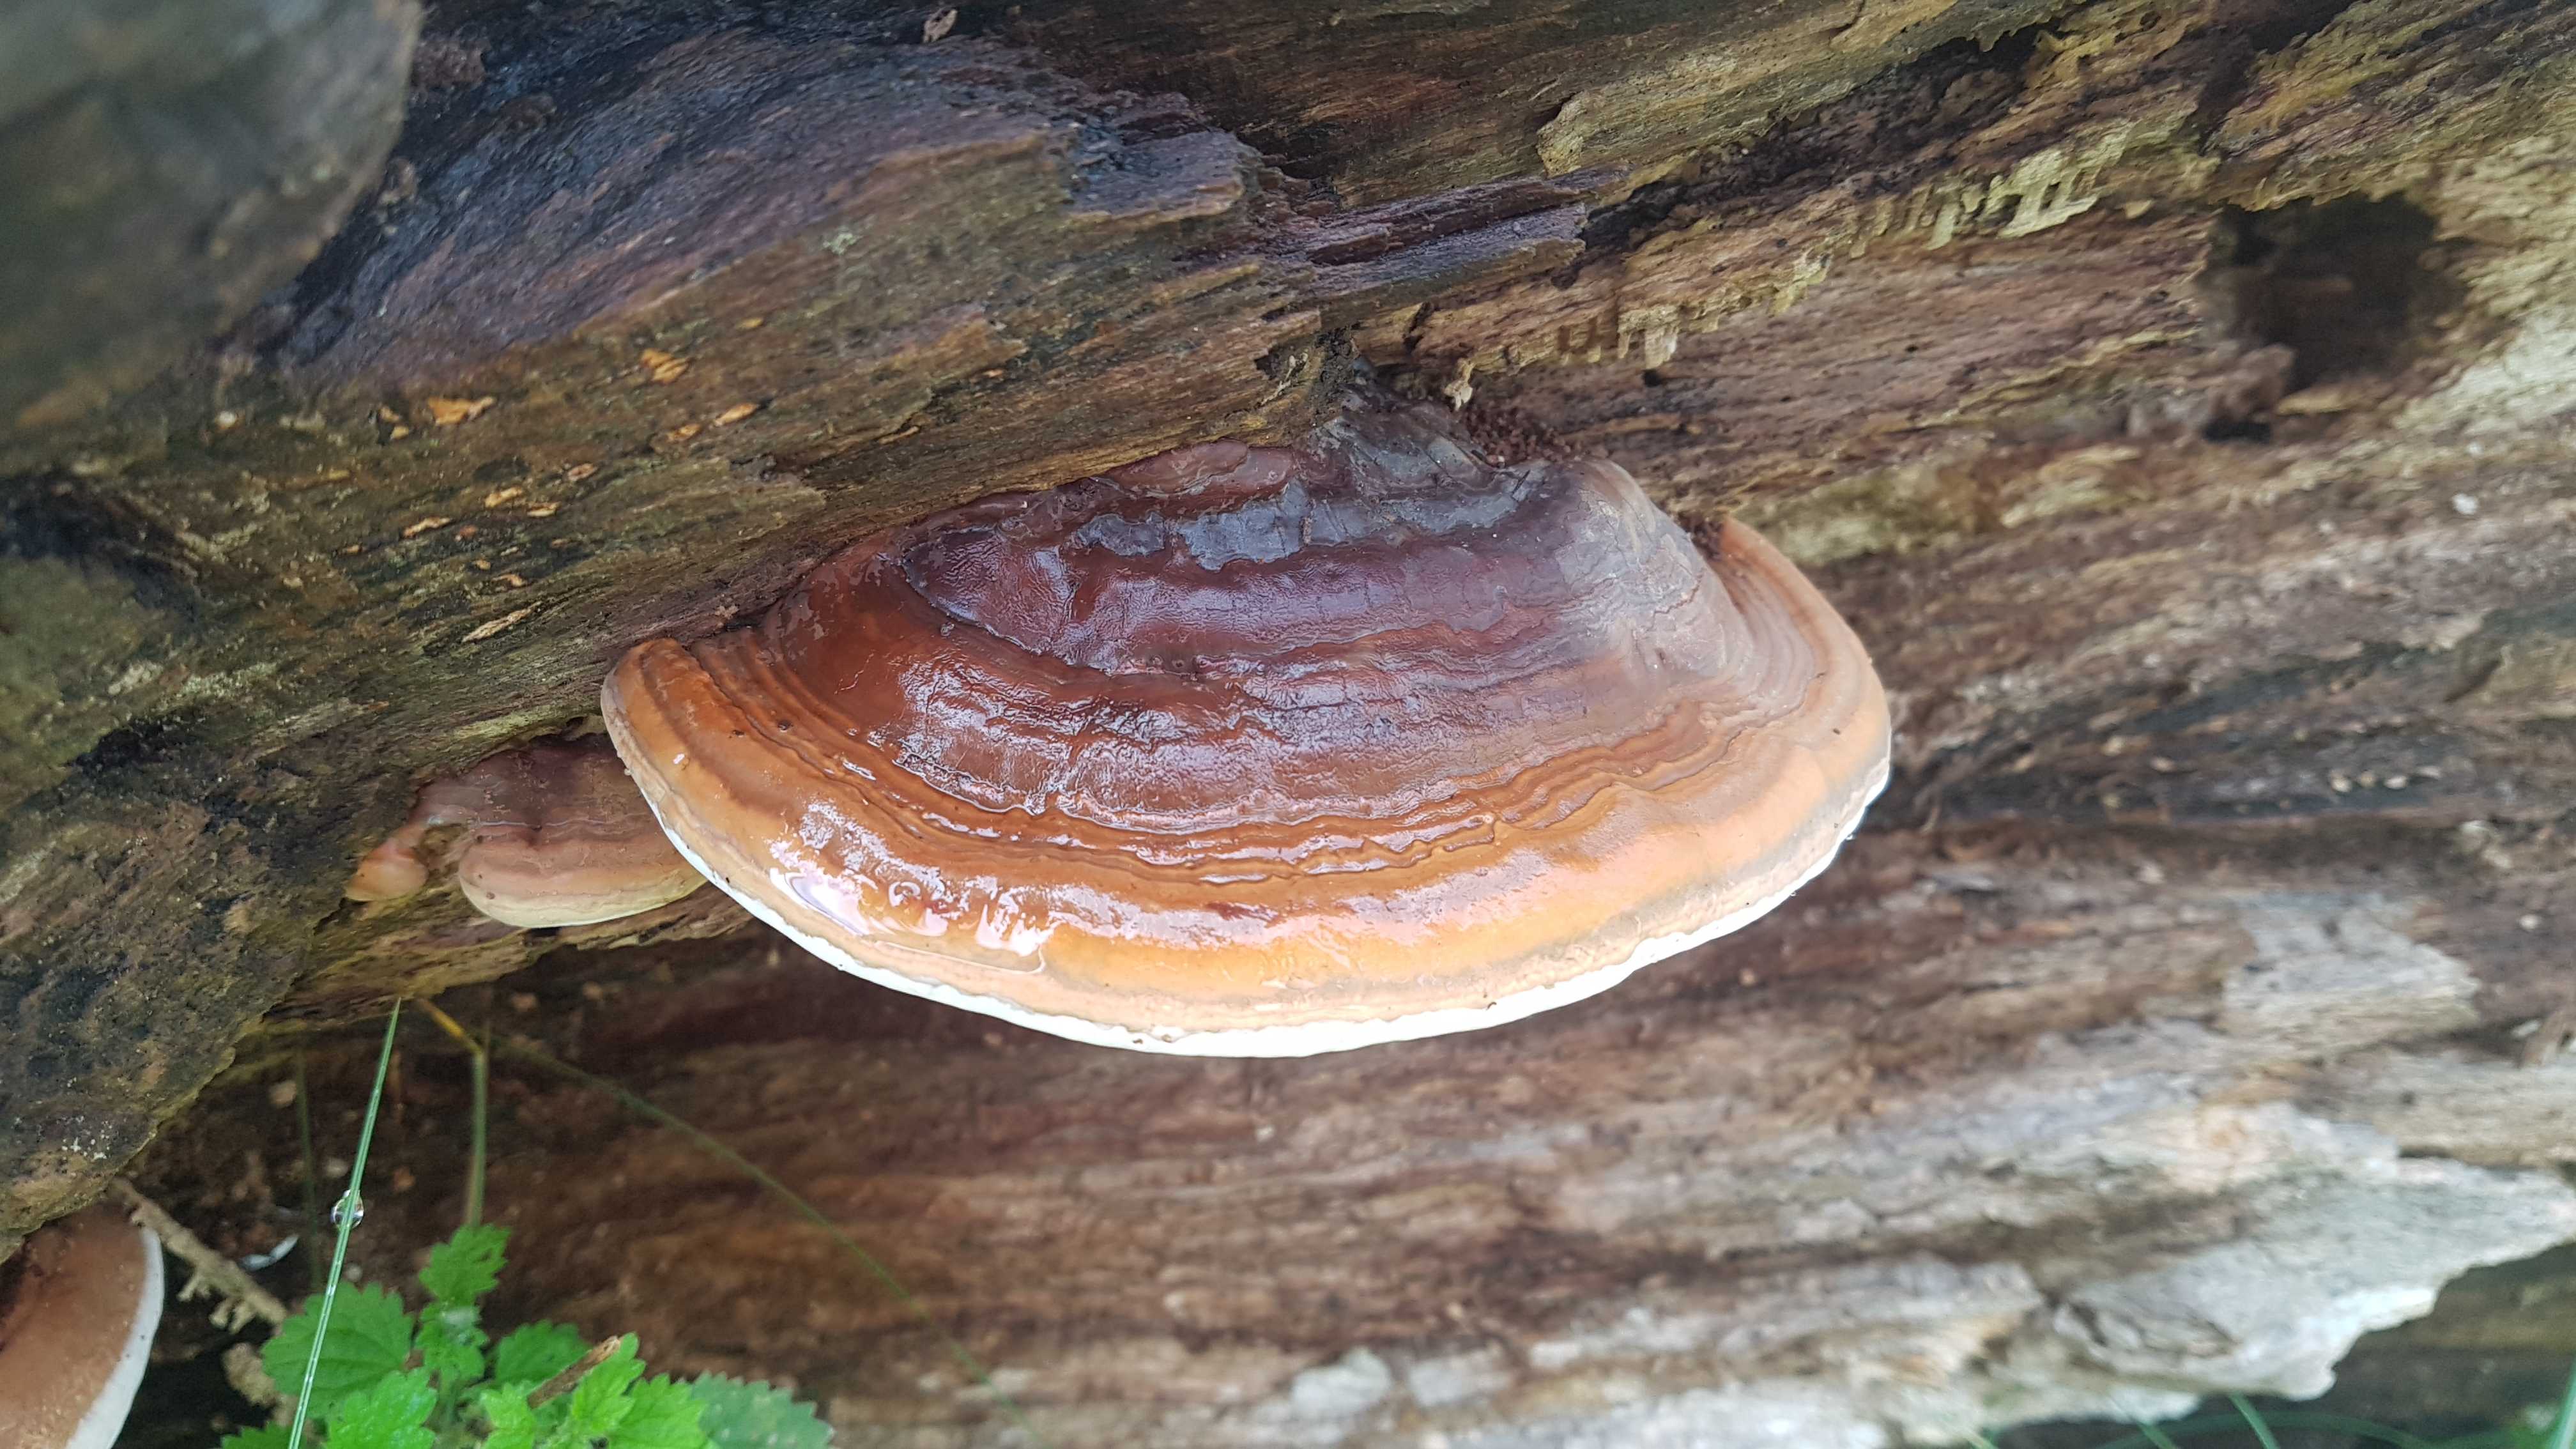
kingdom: Fungi
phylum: Basidiomycota
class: Agaricomycetes
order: Polyporales
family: Fomitopsidaceae
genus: Fomitopsis
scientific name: Fomitopsis pinicola
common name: randbæltet hovporesvamp
